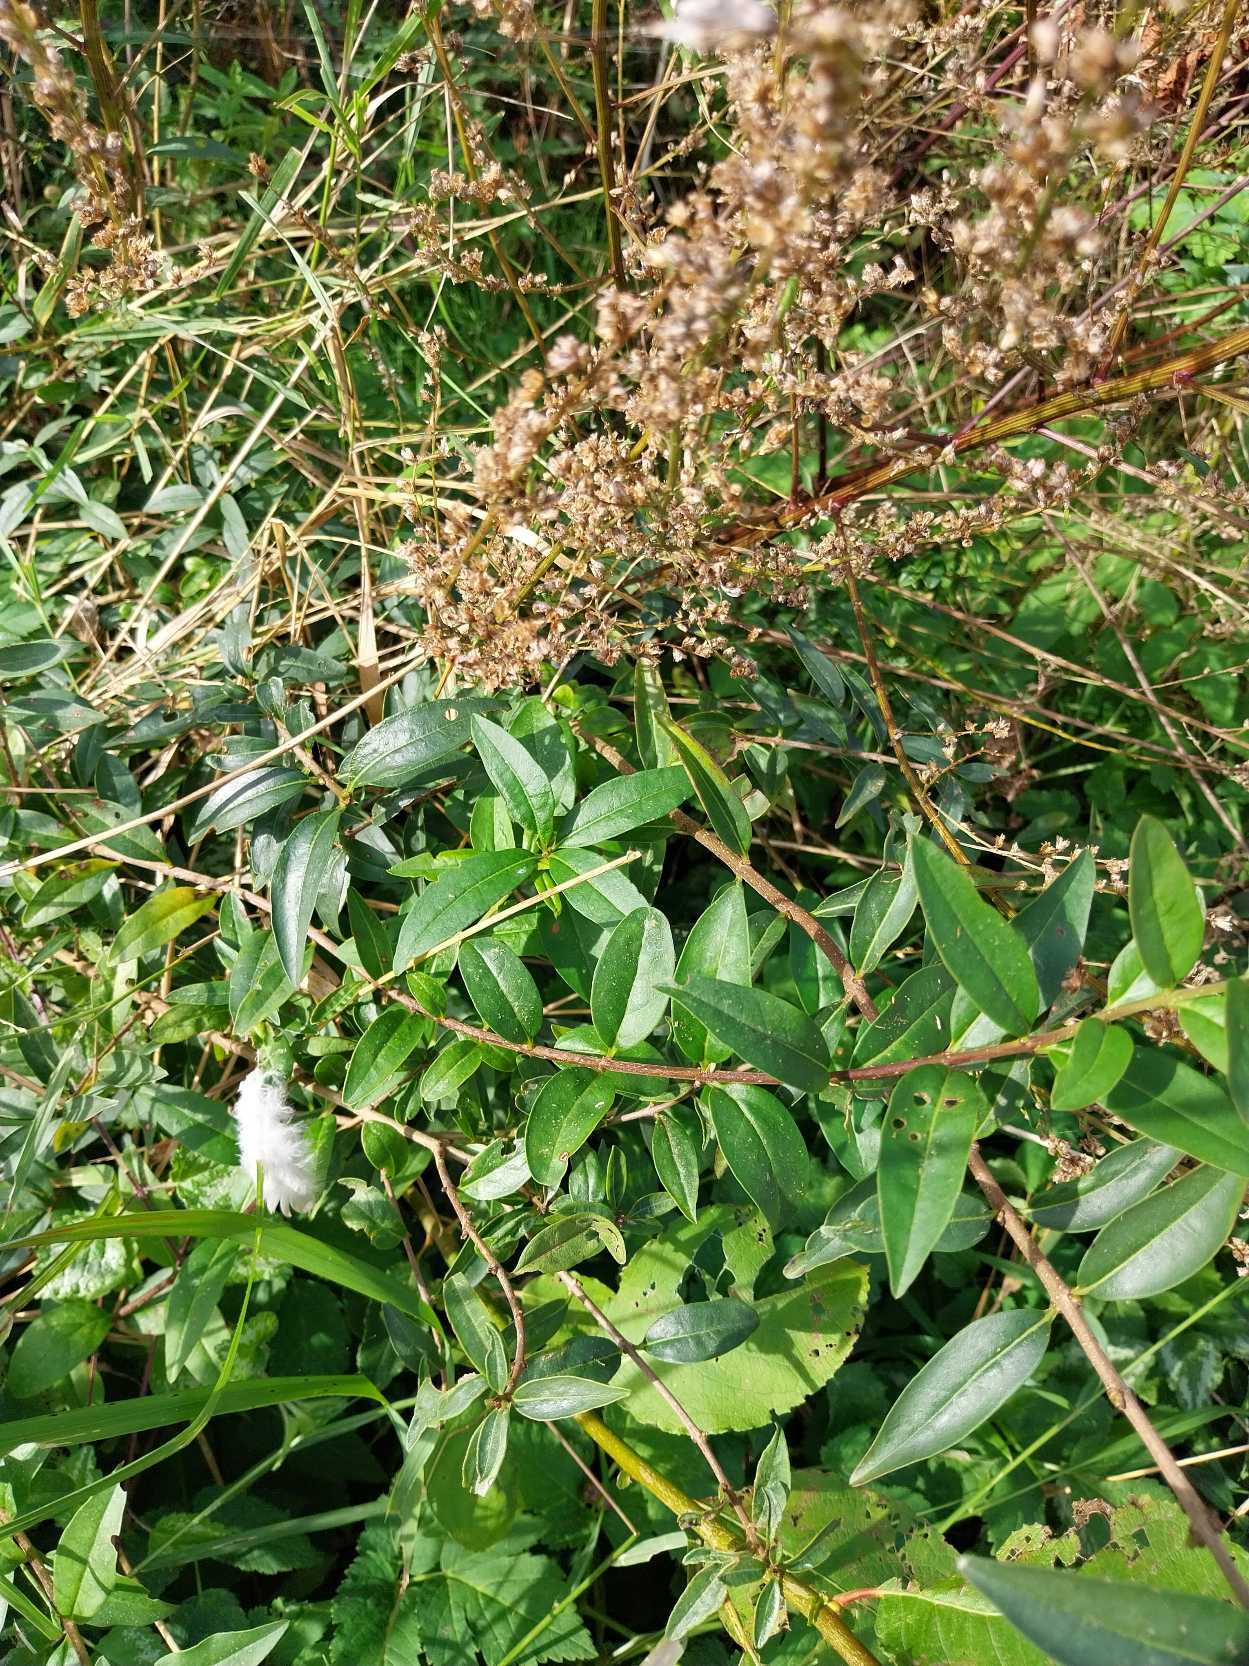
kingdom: Plantae
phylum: Tracheophyta
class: Magnoliopsida
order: Lamiales
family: Oleaceae
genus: Ligustrum
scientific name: Ligustrum vulgare
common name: Liguster
